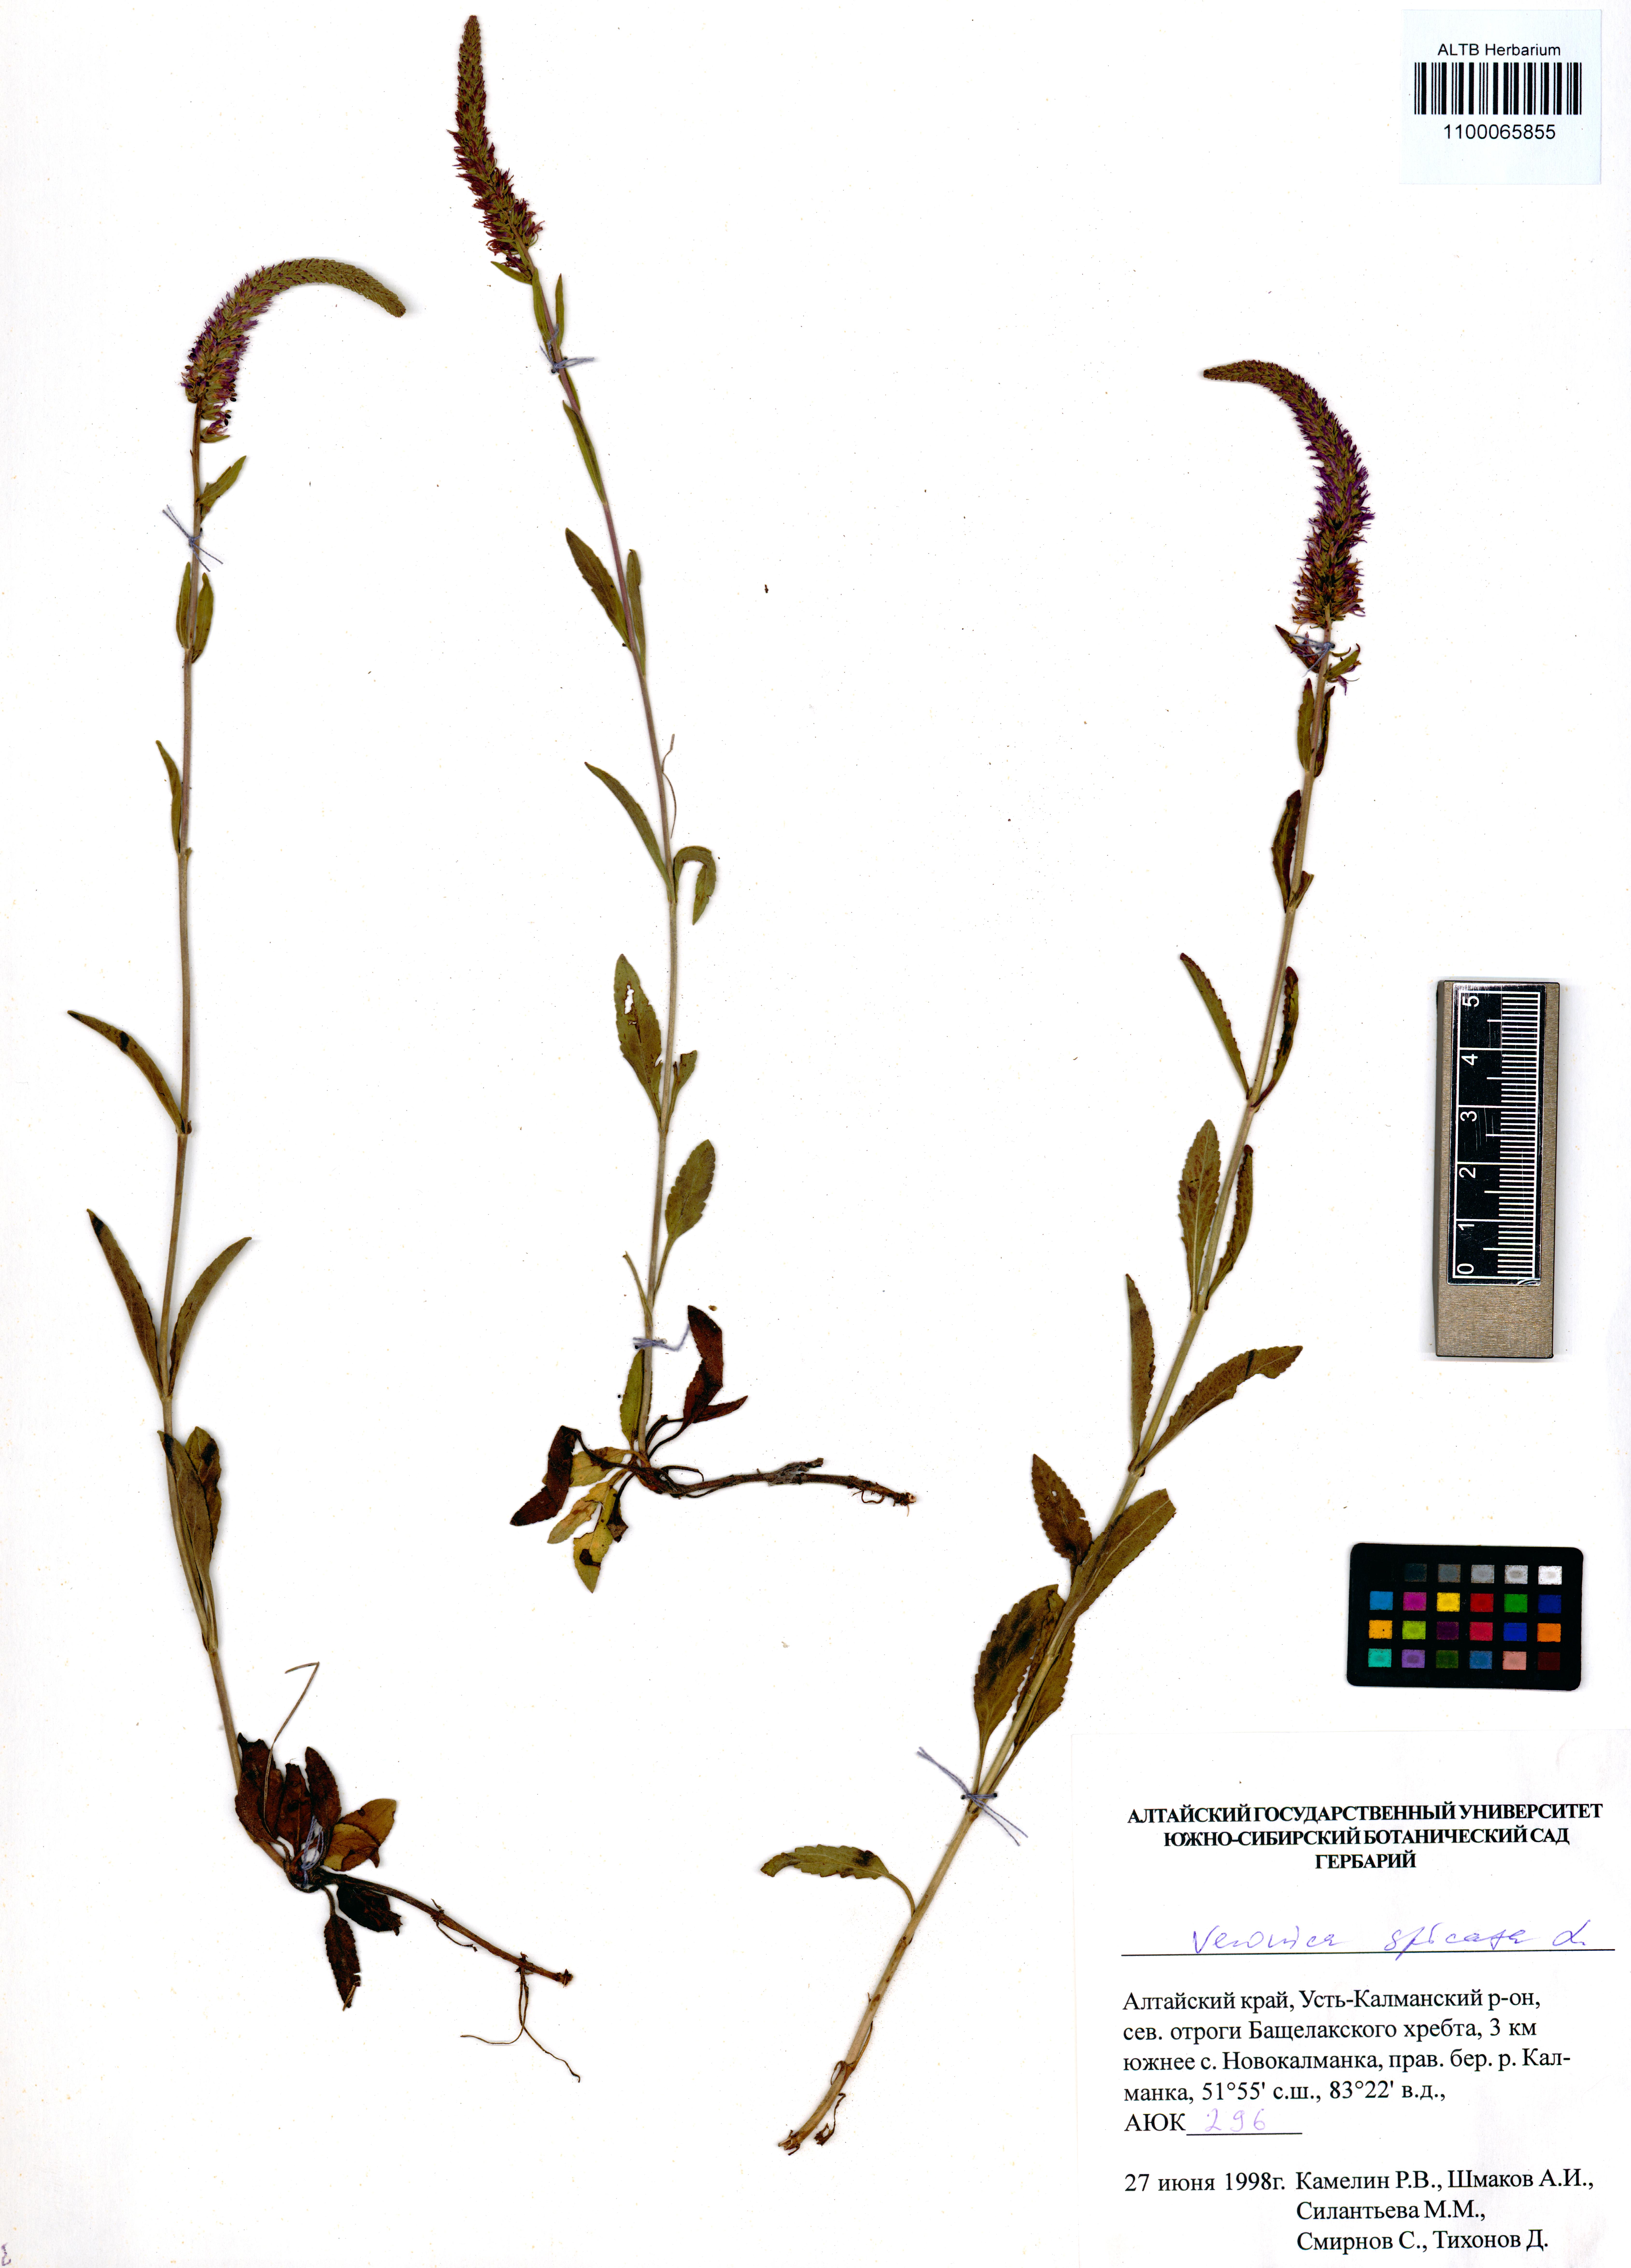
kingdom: Plantae
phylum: Tracheophyta
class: Magnoliopsida
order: Lamiales
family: Plantaginaceae
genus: Veronica
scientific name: Veronica spicata
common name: Spiked speedwell
